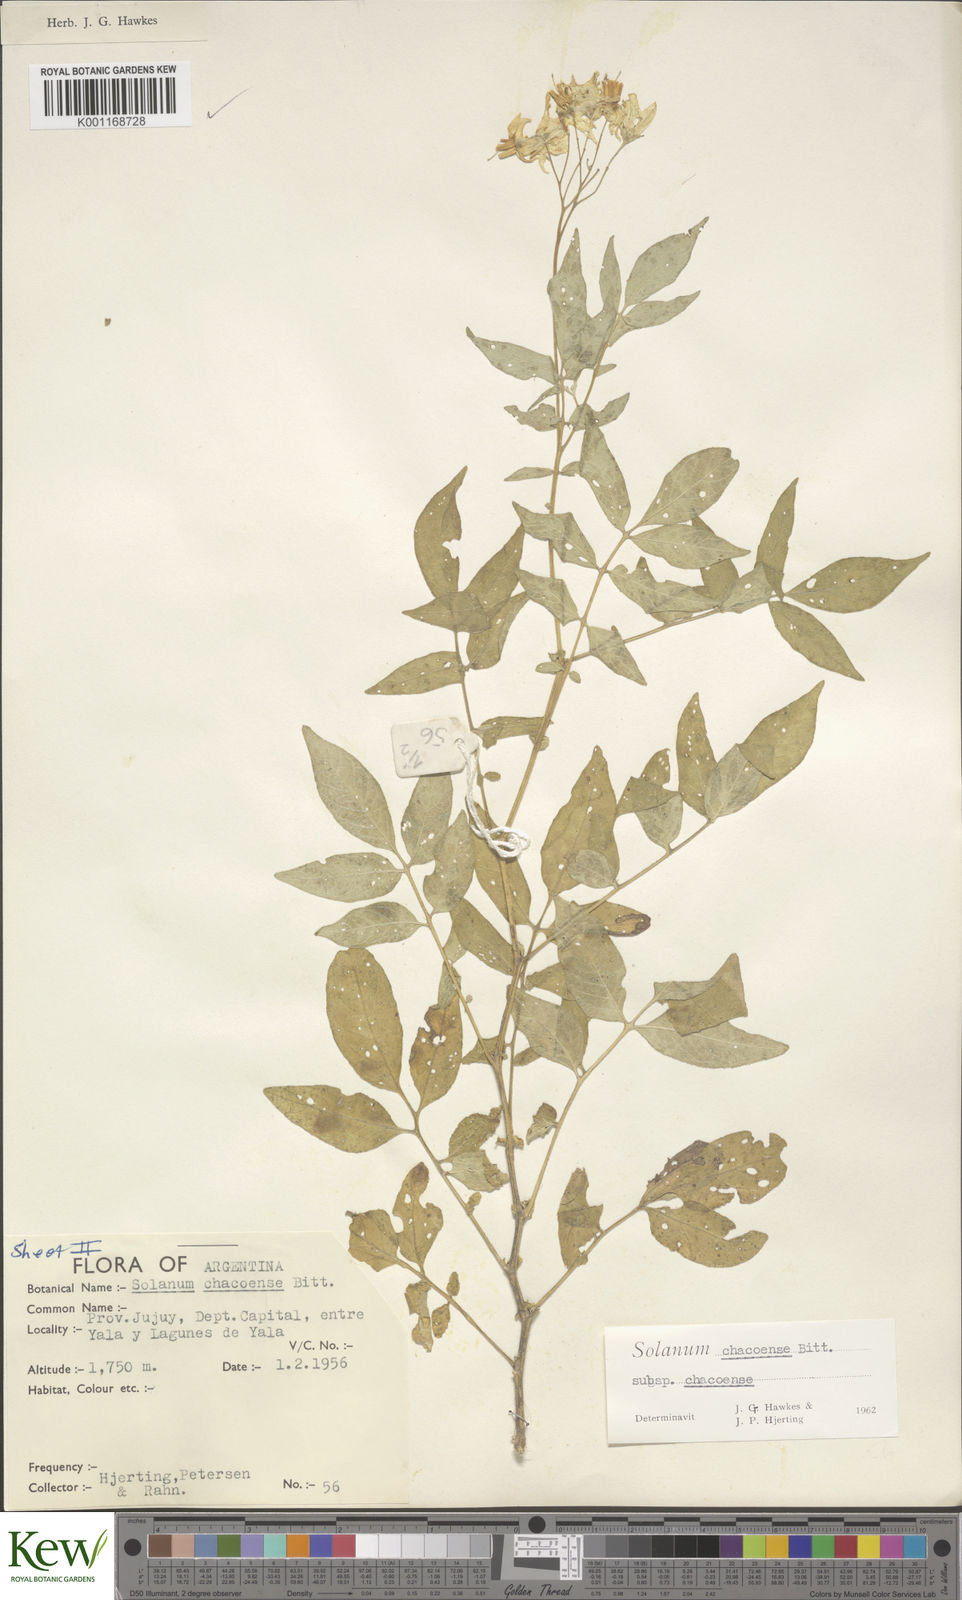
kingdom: Plantae
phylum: Tracheophyta
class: Magnoliopsida
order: Solanales
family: Solanaceae
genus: Solanum
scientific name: Solanum chacoense
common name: Chaco potato
